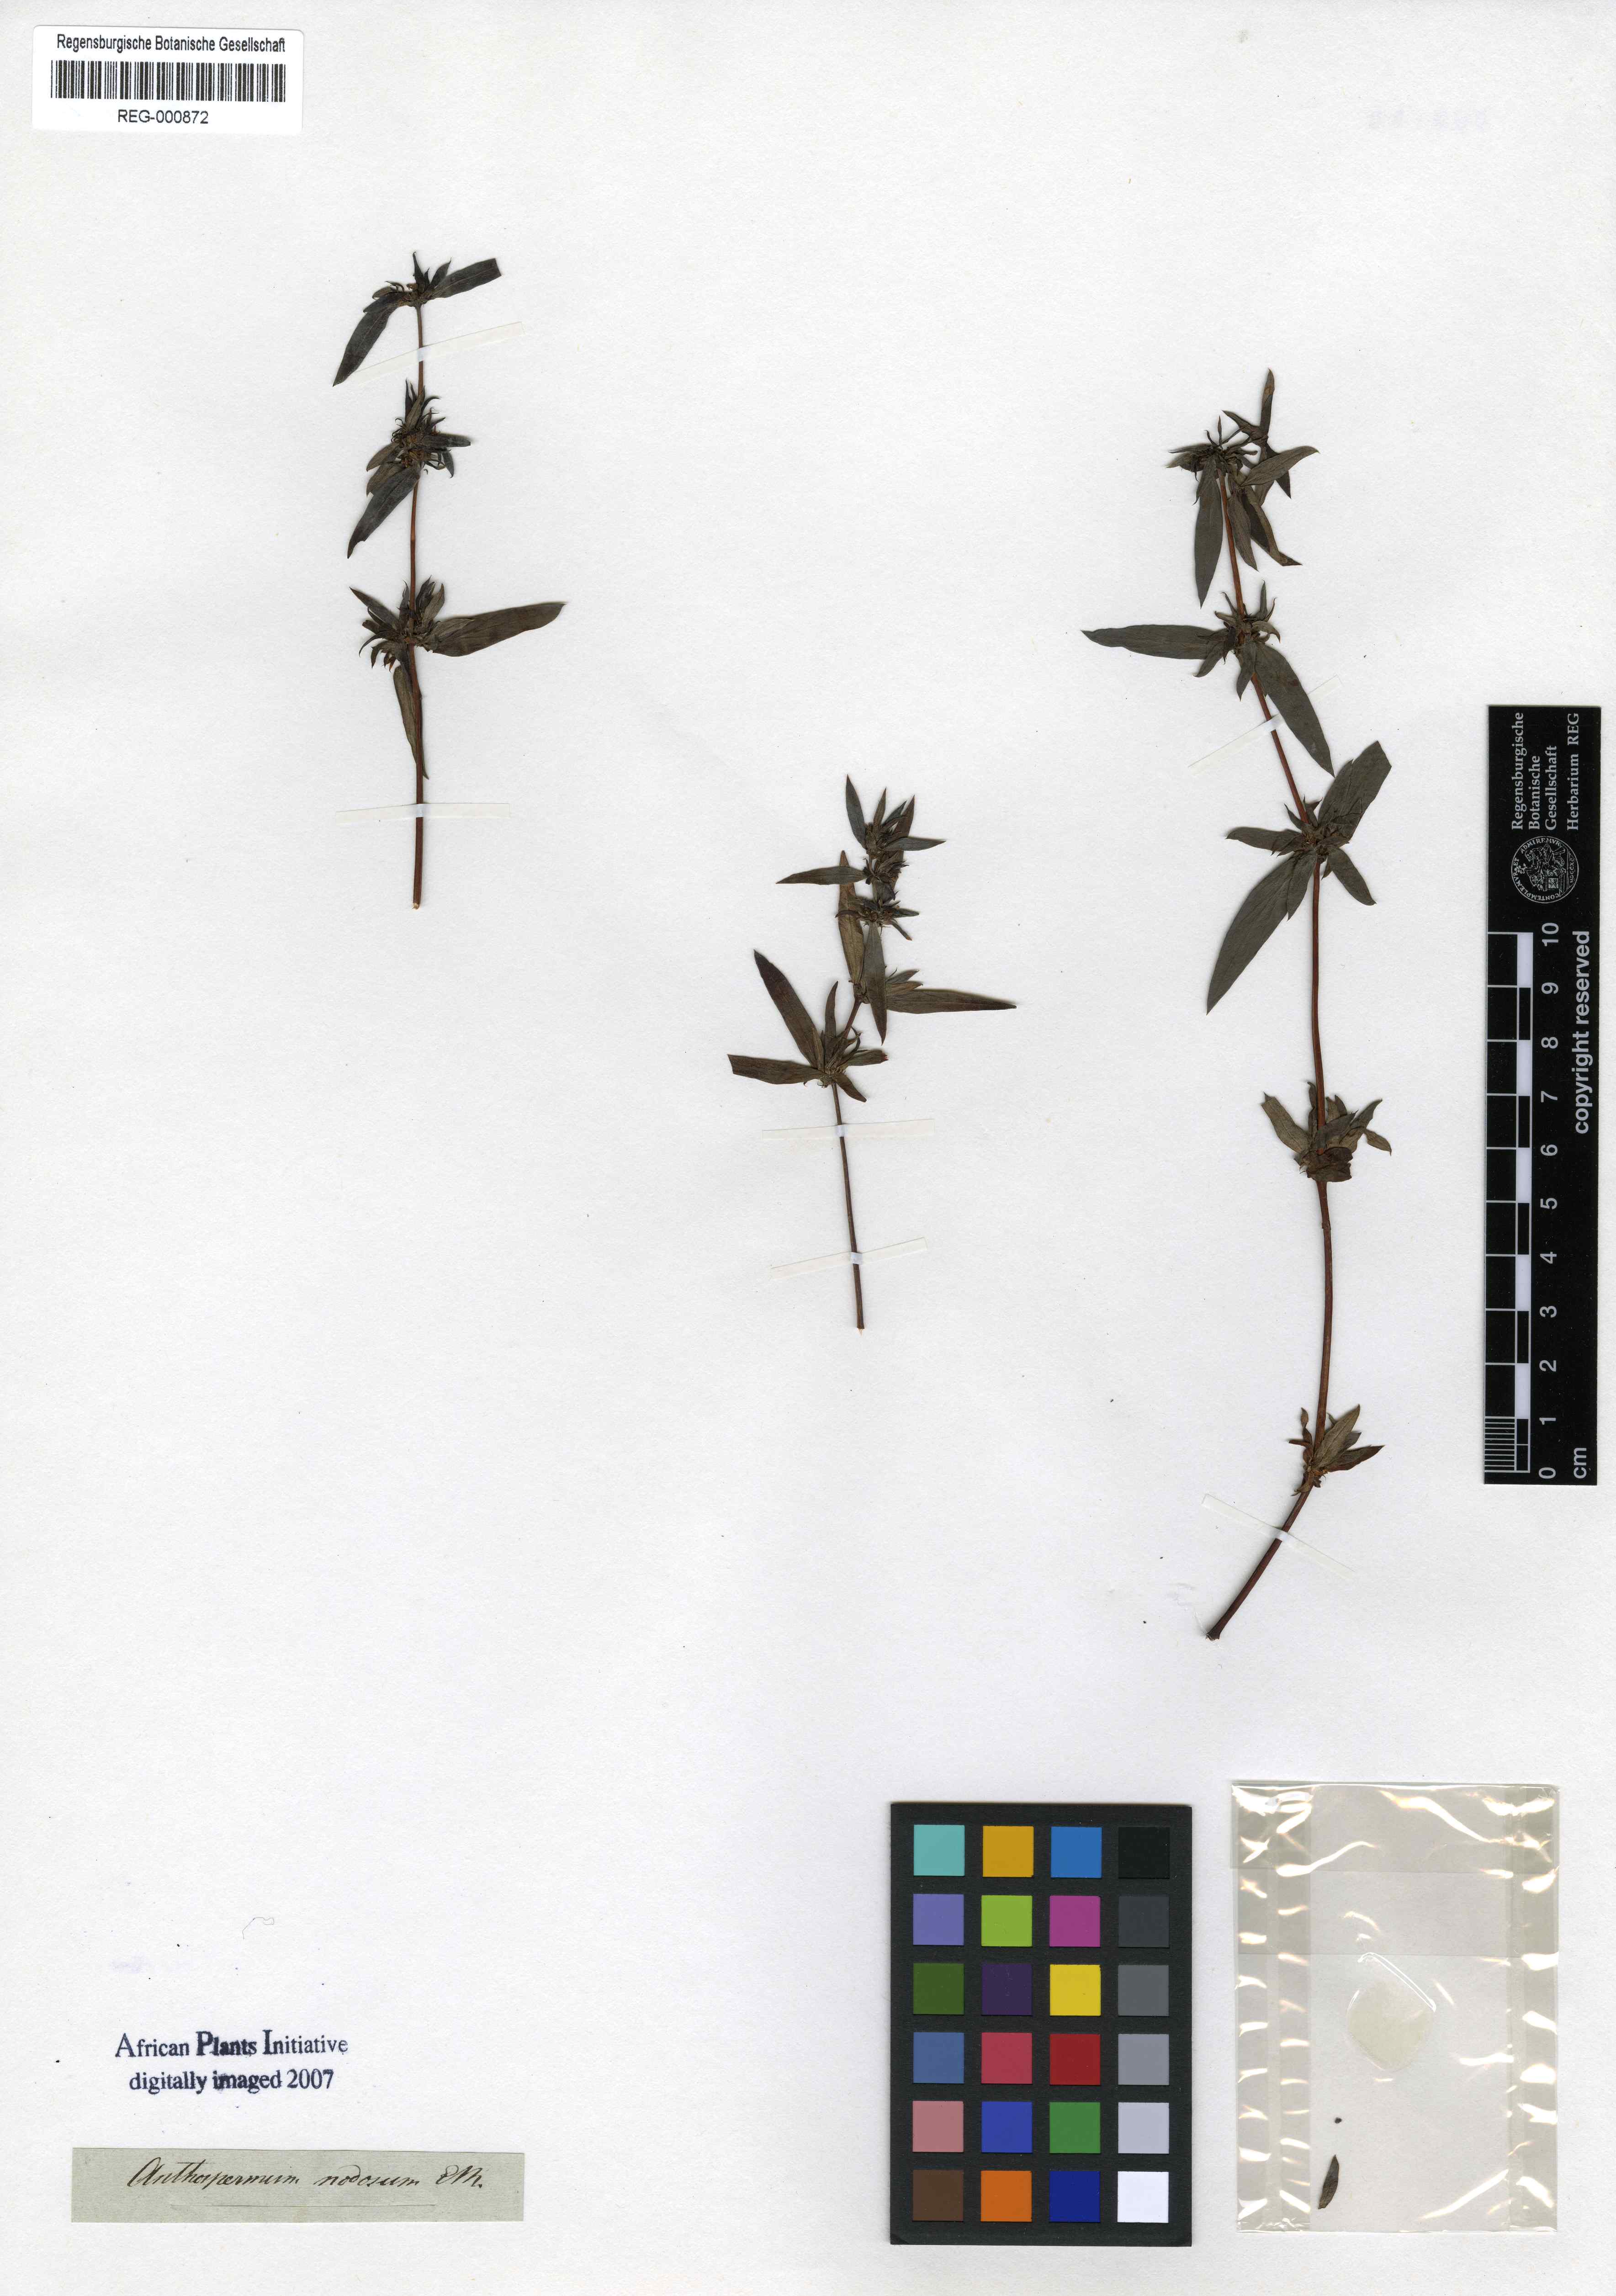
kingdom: Plantae
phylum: Tracheophyta
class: Magnoliopsida
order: Gentianales
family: Rubiaceae
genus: Anthospermum
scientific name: Anthospermum herbaceum
